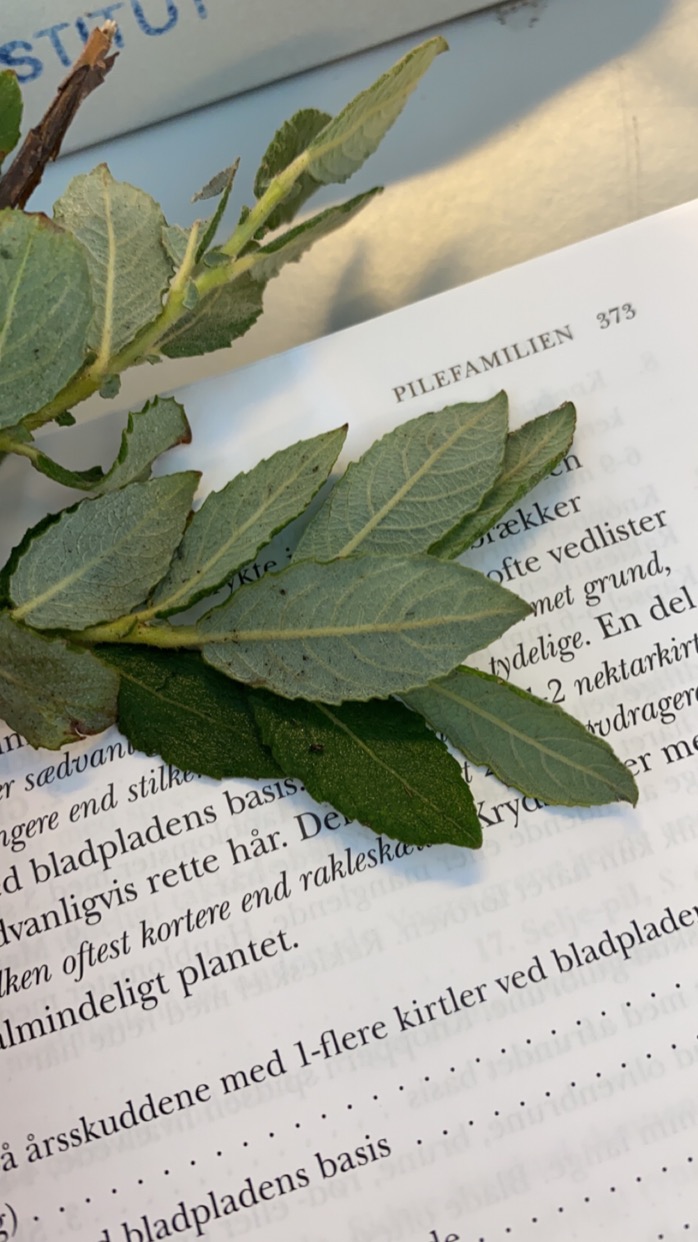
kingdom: Plantae
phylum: Tracheophyta
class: Magnoliopsida
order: Malpighiales
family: Salicaceae
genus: Salix
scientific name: Salix cinerea
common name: Grå-pil
